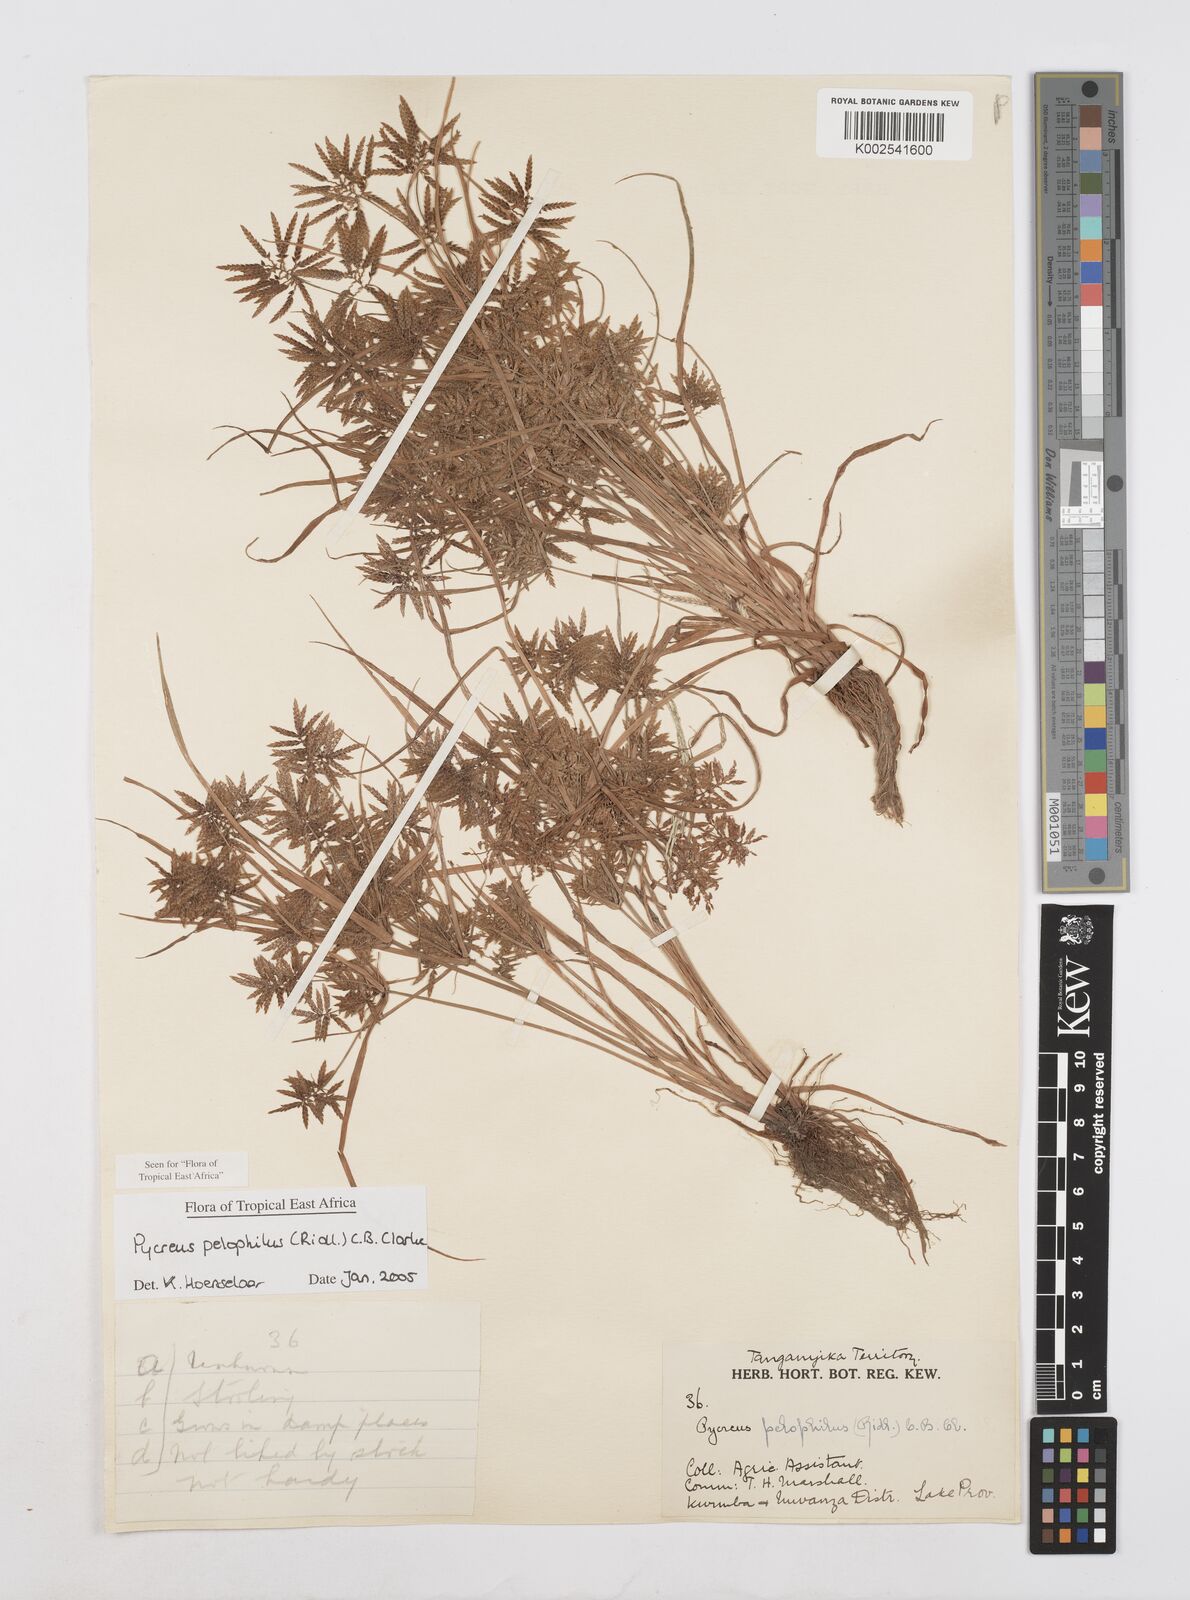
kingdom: Plantae
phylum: Tracheophyta
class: Liliopsida
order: Poales
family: Cyperaceae
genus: Cyperus
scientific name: Cyperus pelophilus
